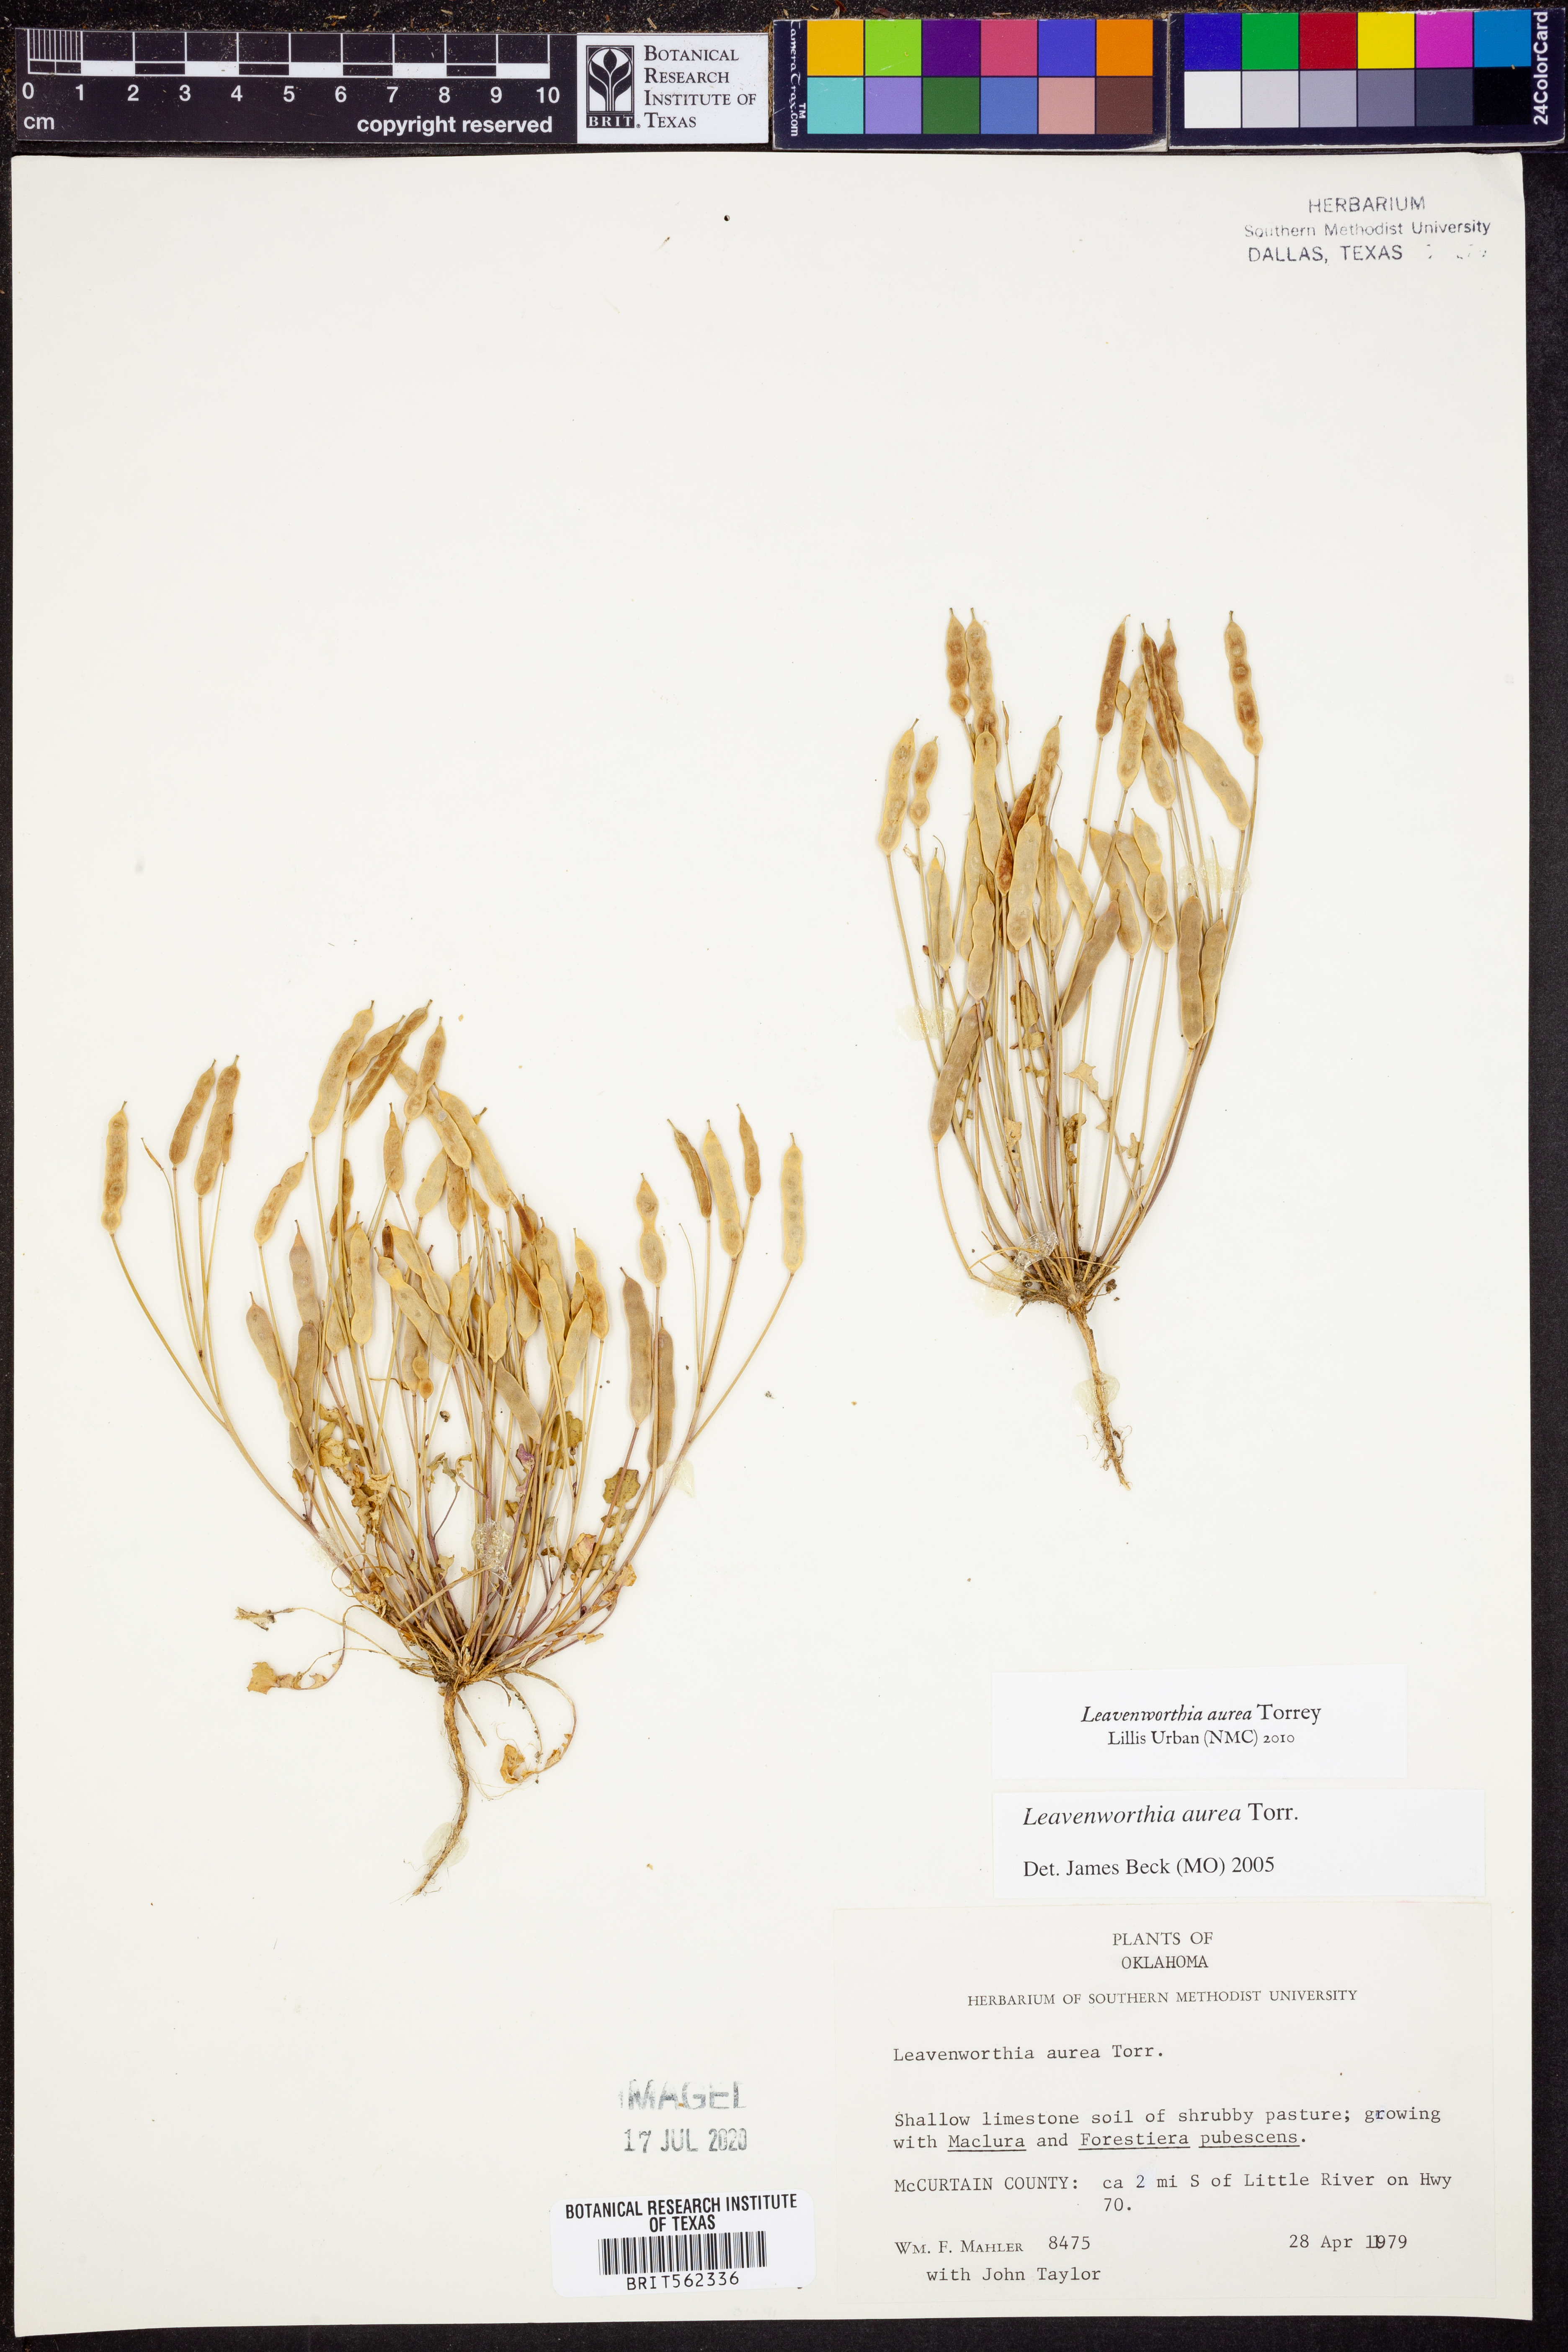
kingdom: Plantae
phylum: Tracheophyta
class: Magnoliopsida
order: Brassicales
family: Brassicaceae
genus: Leavenworthia
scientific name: Leavenworthia aurea
